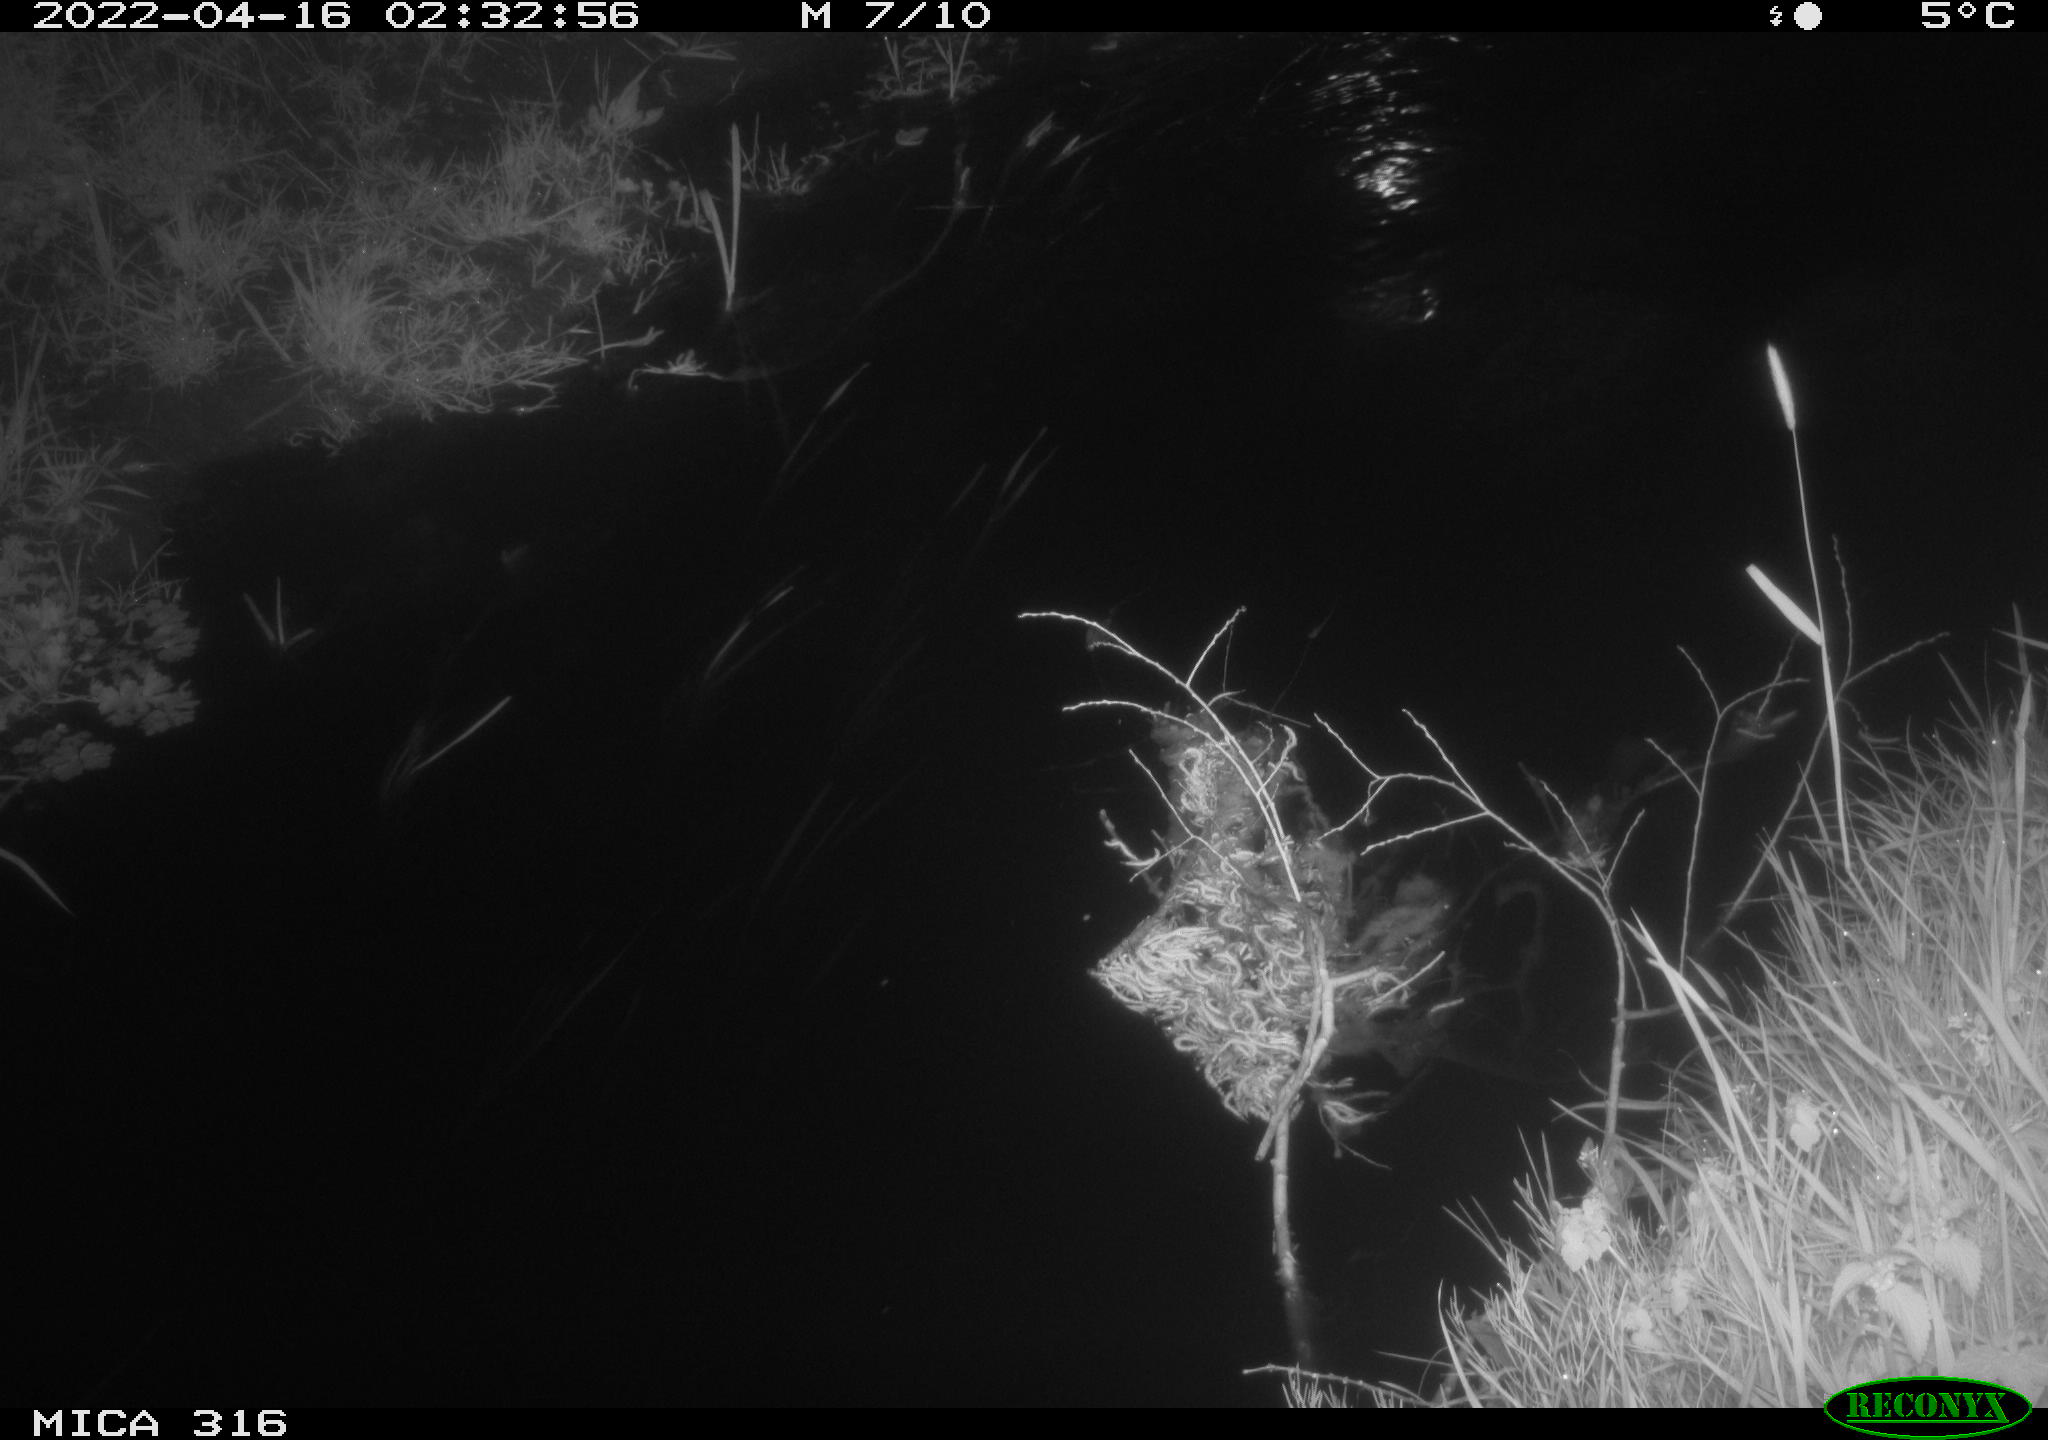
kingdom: Animalia
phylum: Chordata
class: Aves
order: Anseriformes
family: Anatidae
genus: Anas
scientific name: Anas platyrhynchos
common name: Mallard
